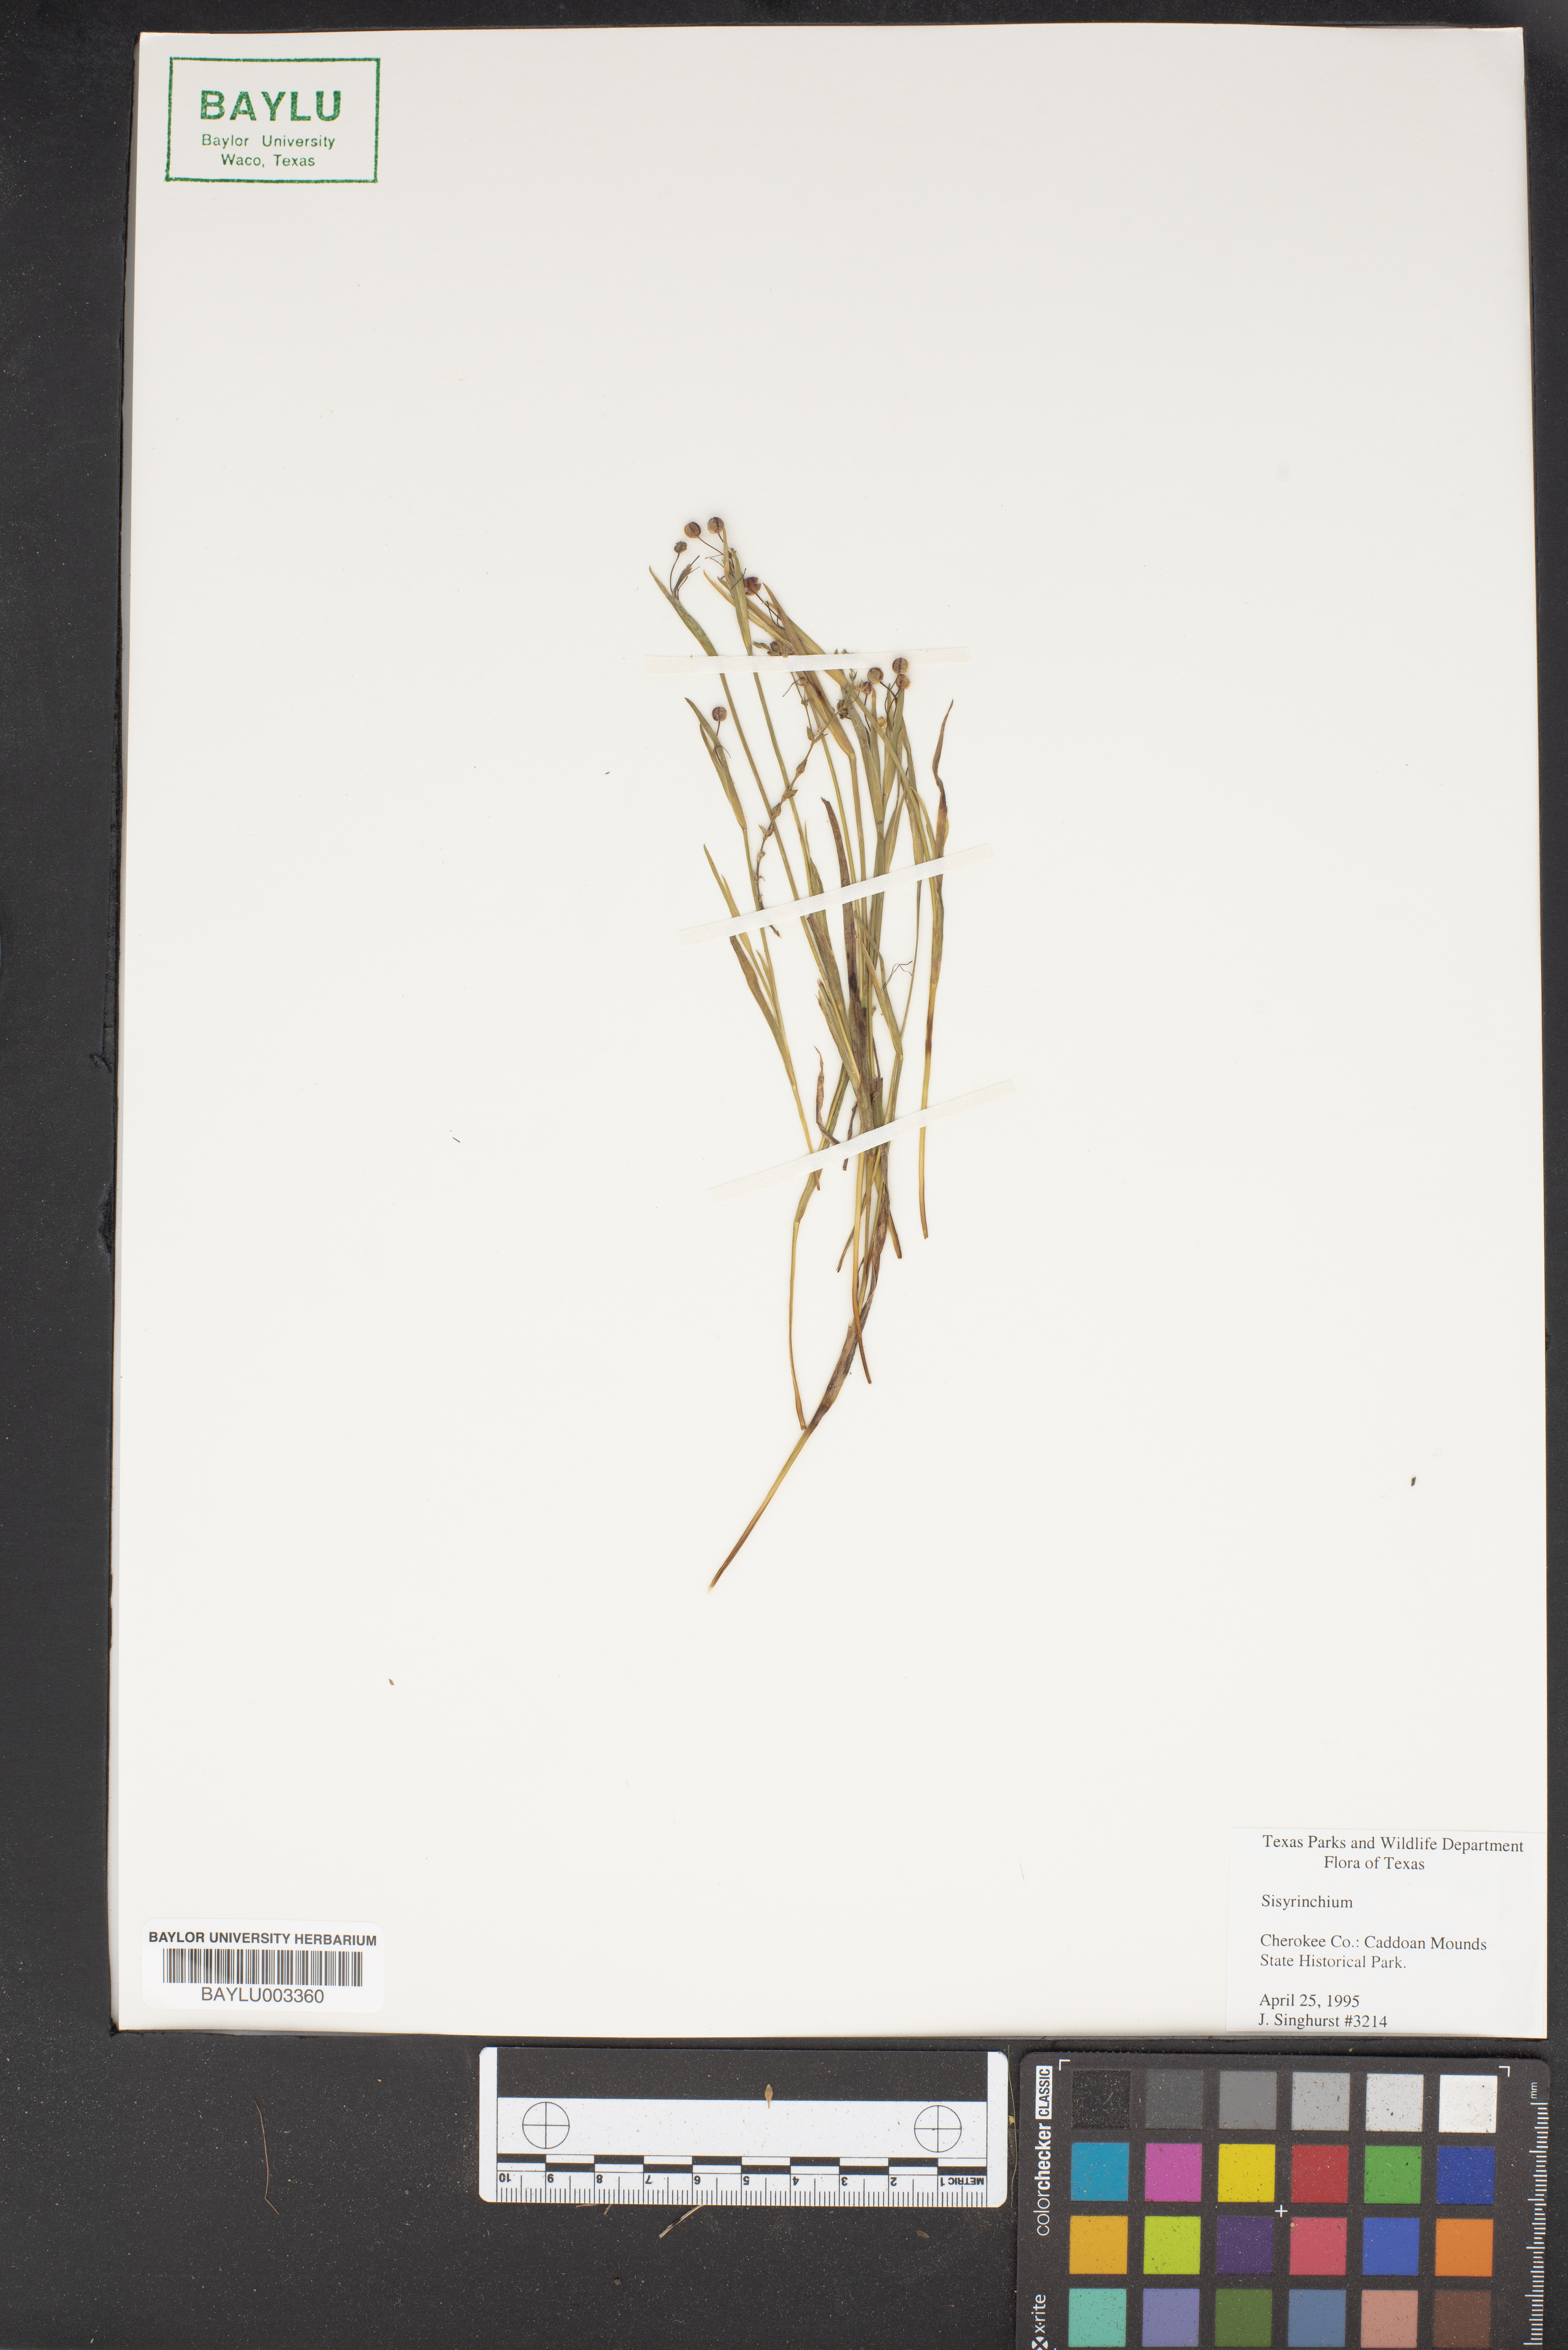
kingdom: Plantae
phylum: Tracheophyta
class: Liliopsida
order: Asparagales
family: Iridaceae
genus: Sisyrinchium
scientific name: Sisyrinchium
